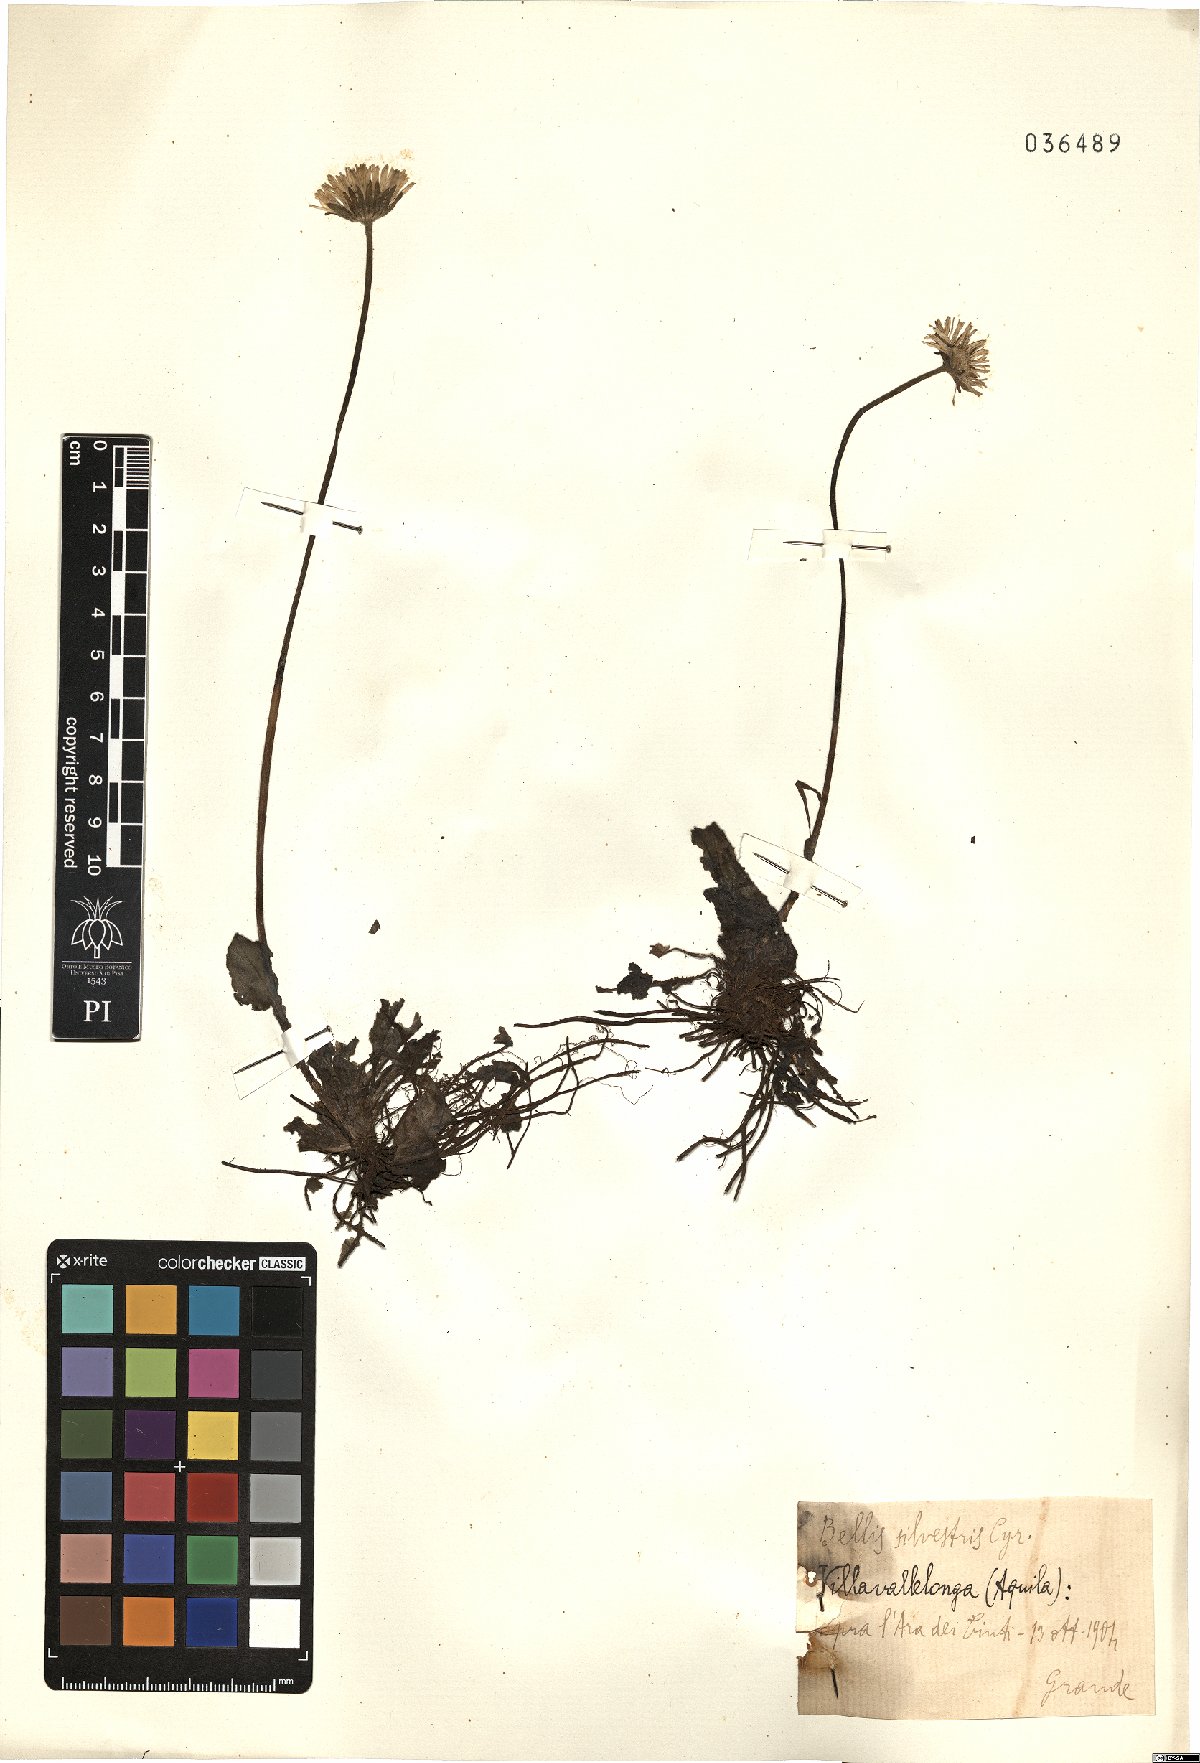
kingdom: Plantae
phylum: Tracheophyta
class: Magnoliopsida
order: Asterales
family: Asteraceae
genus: Bellis
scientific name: Bellis sylvestris
